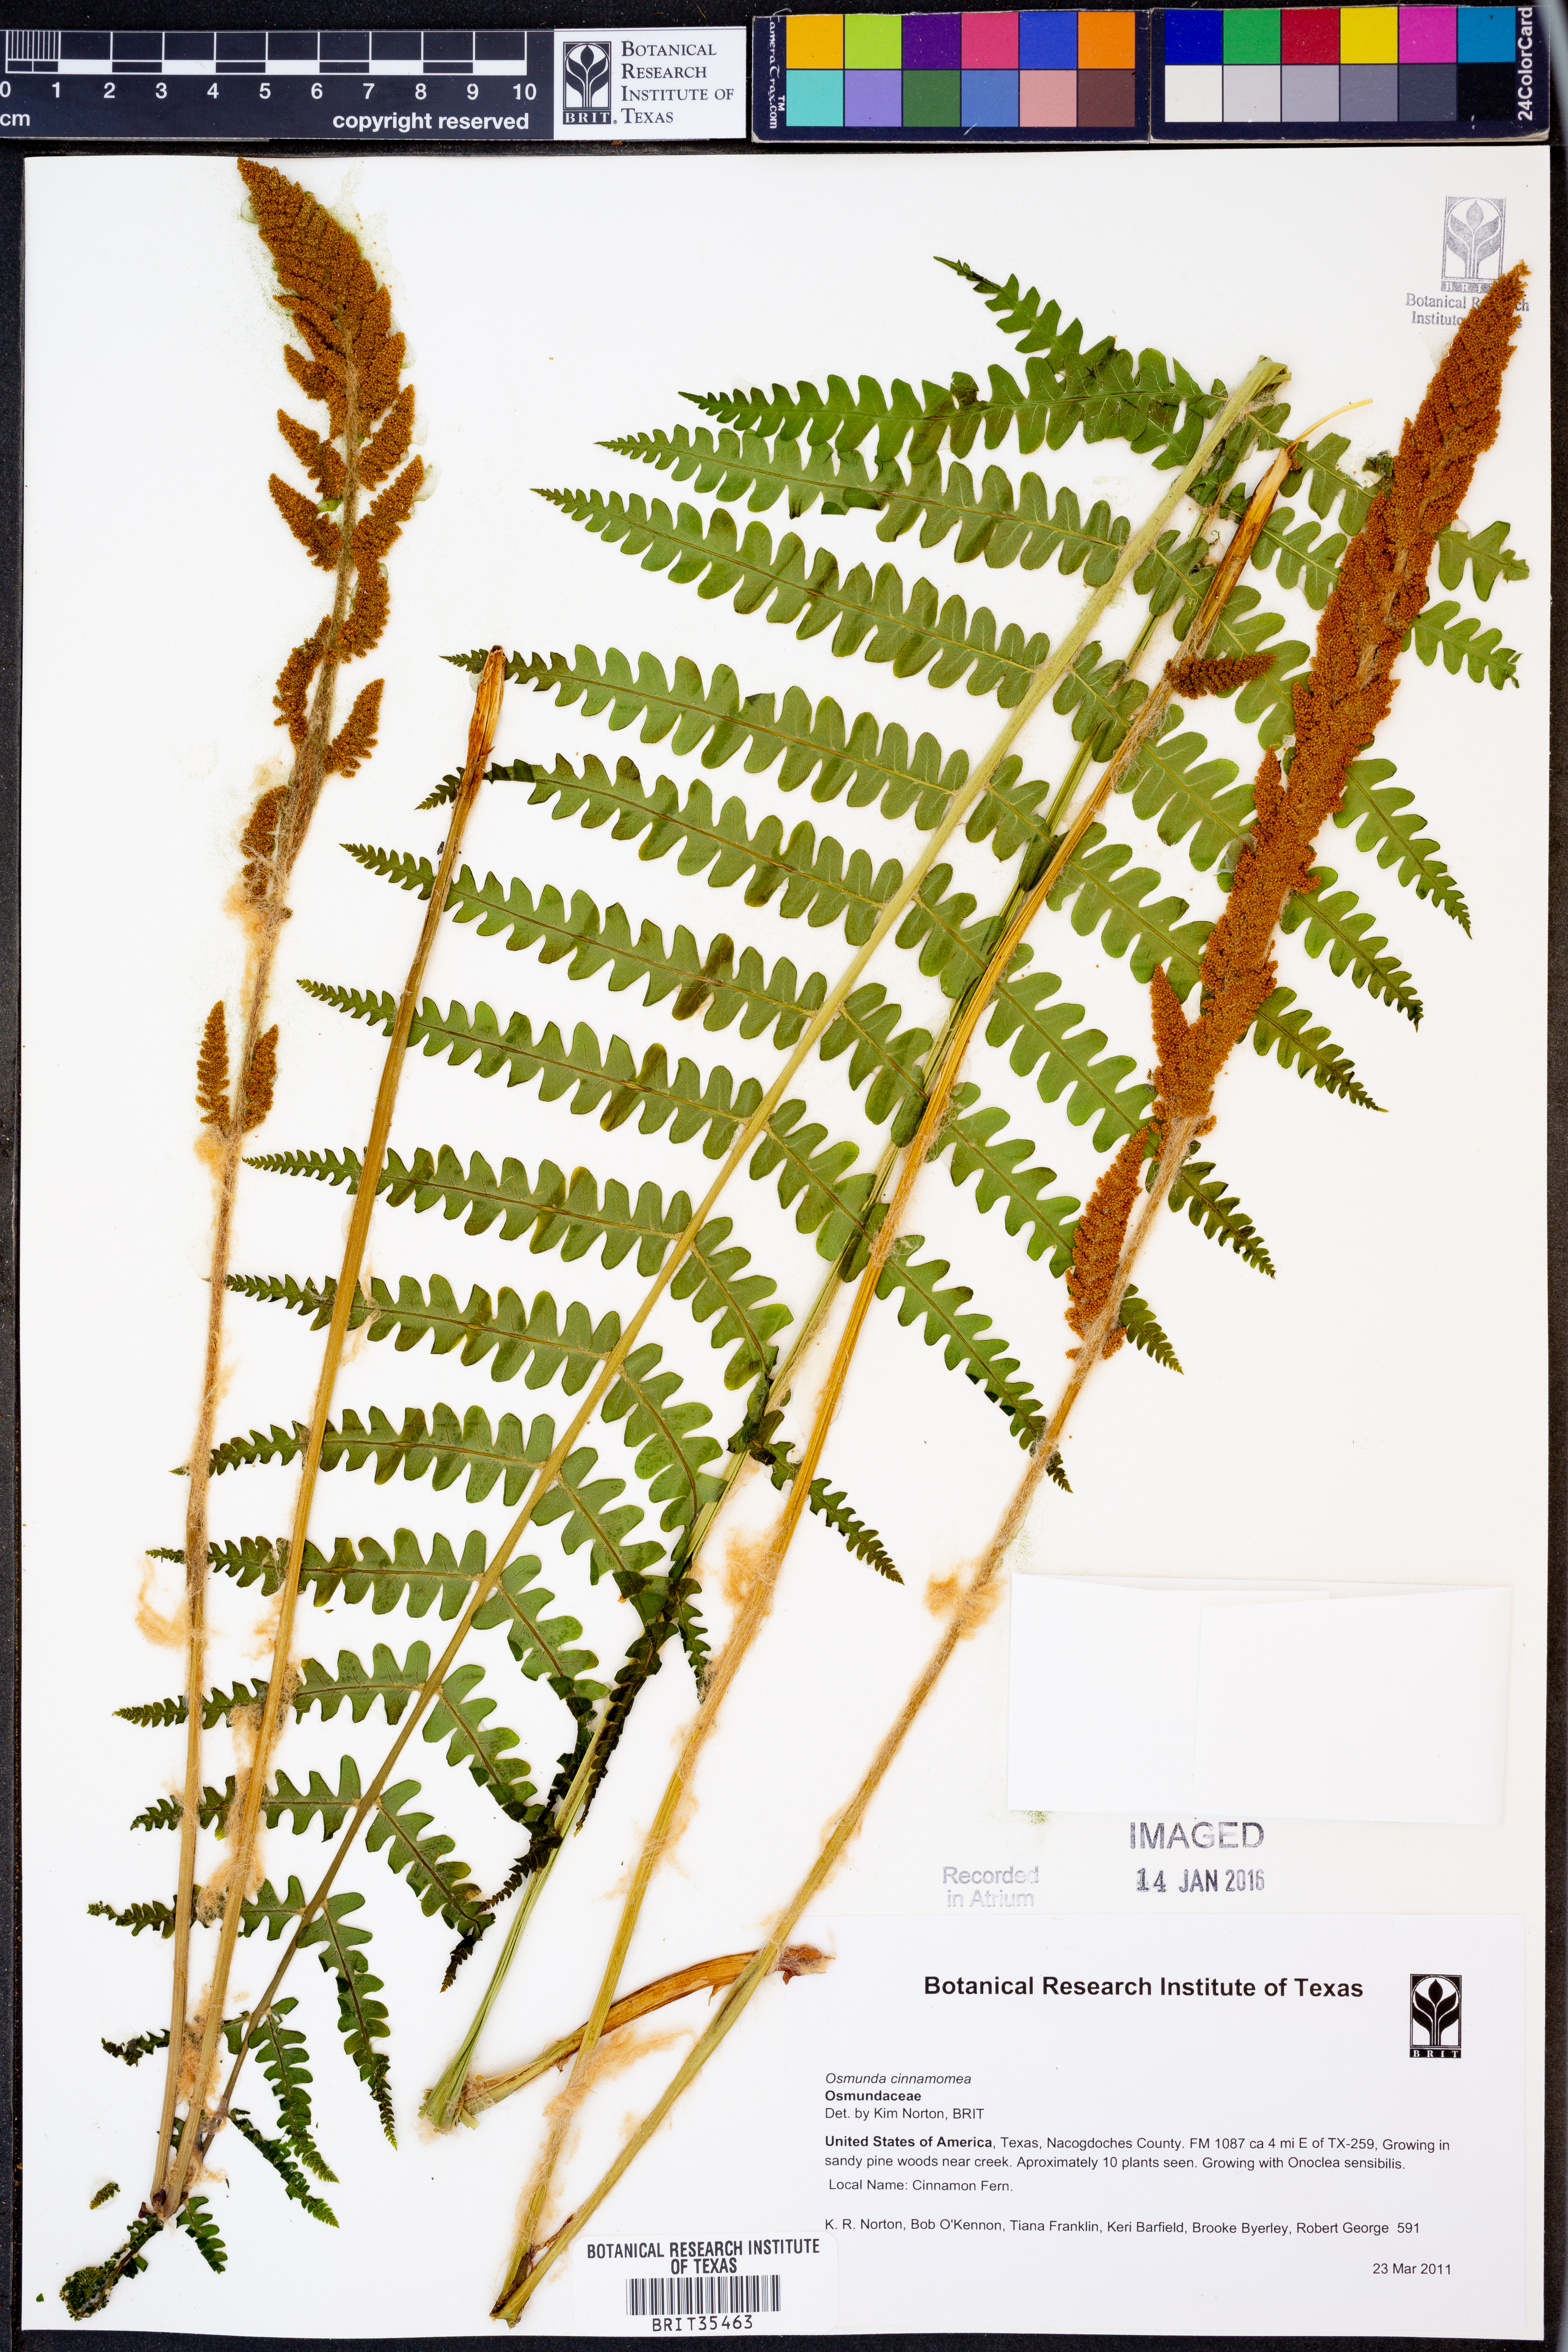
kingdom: Plantae
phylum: Tracheophyta
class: Polypodiopsida
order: Osmundales
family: Osmundaceae
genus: Osmundastrum
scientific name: Osmundastrum cinnamomeum
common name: Cinnamon fern
